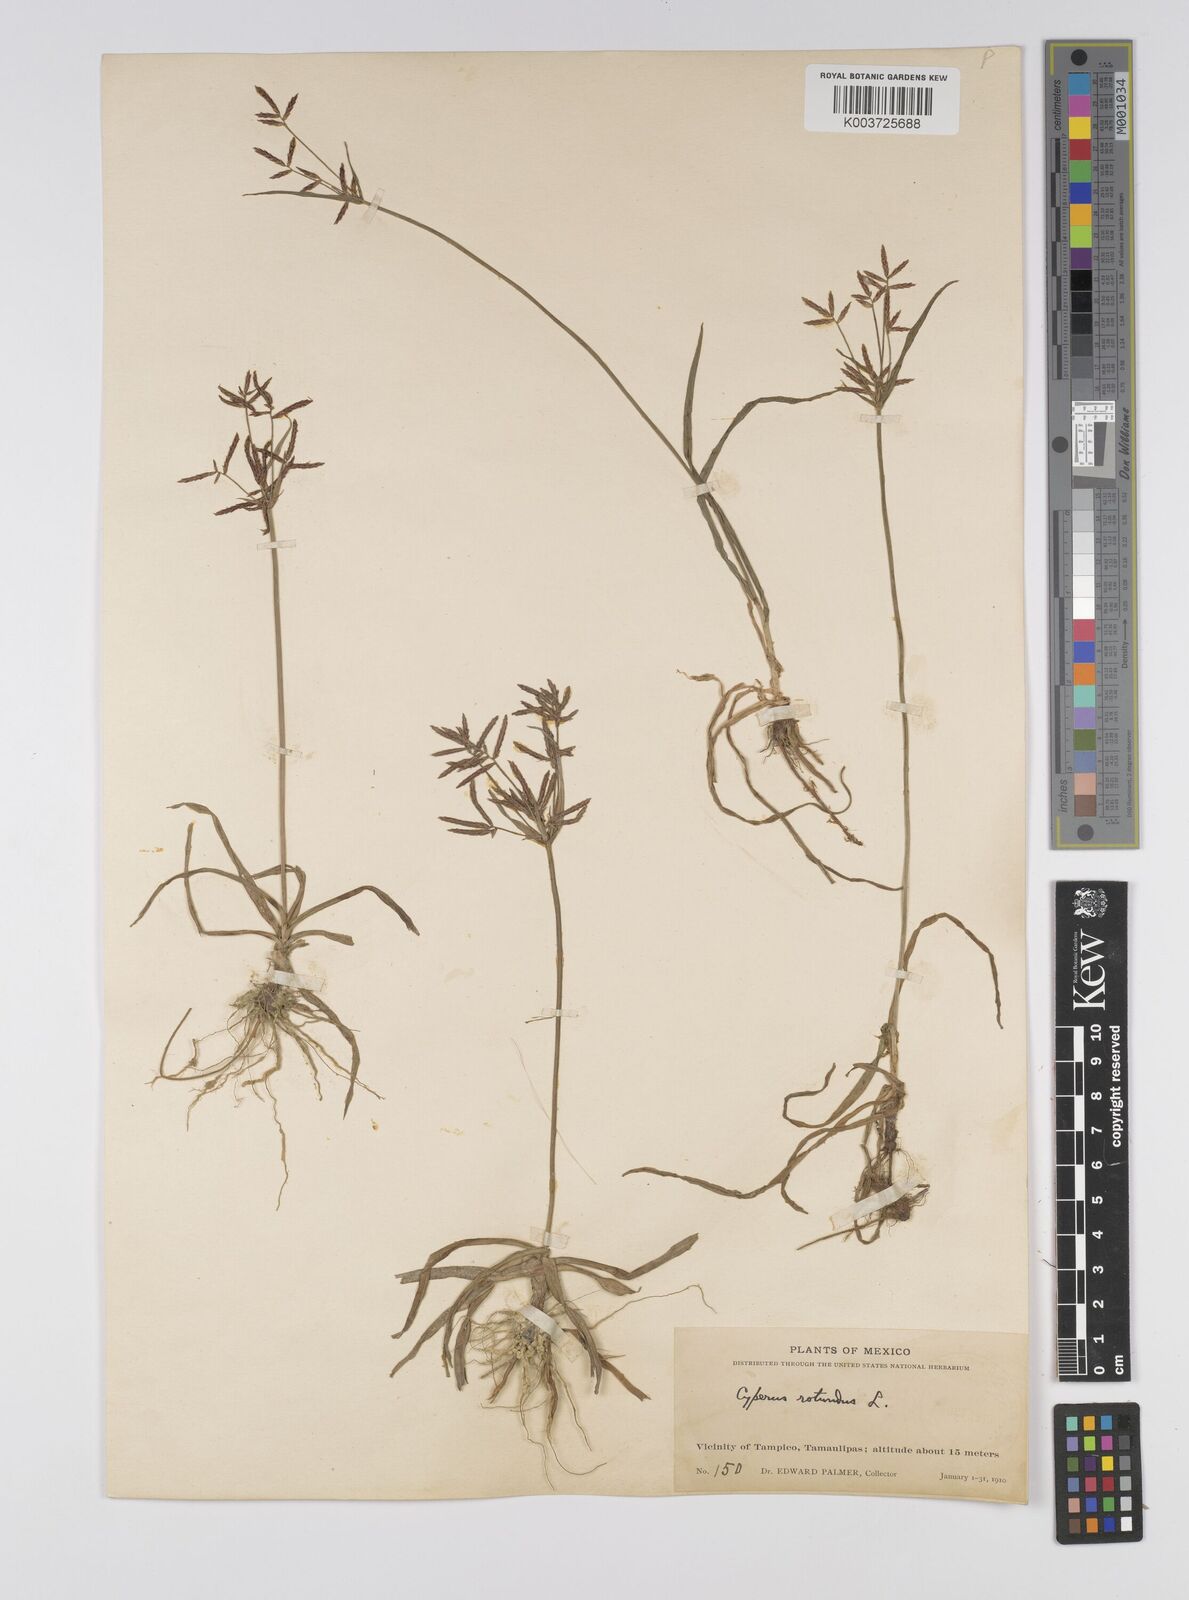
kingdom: Plantae
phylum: Tracheophyta
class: Liliopsida
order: Poales
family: Cyperaceae
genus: Cyperus
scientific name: Cyperus rotundus
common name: Nutgrass
